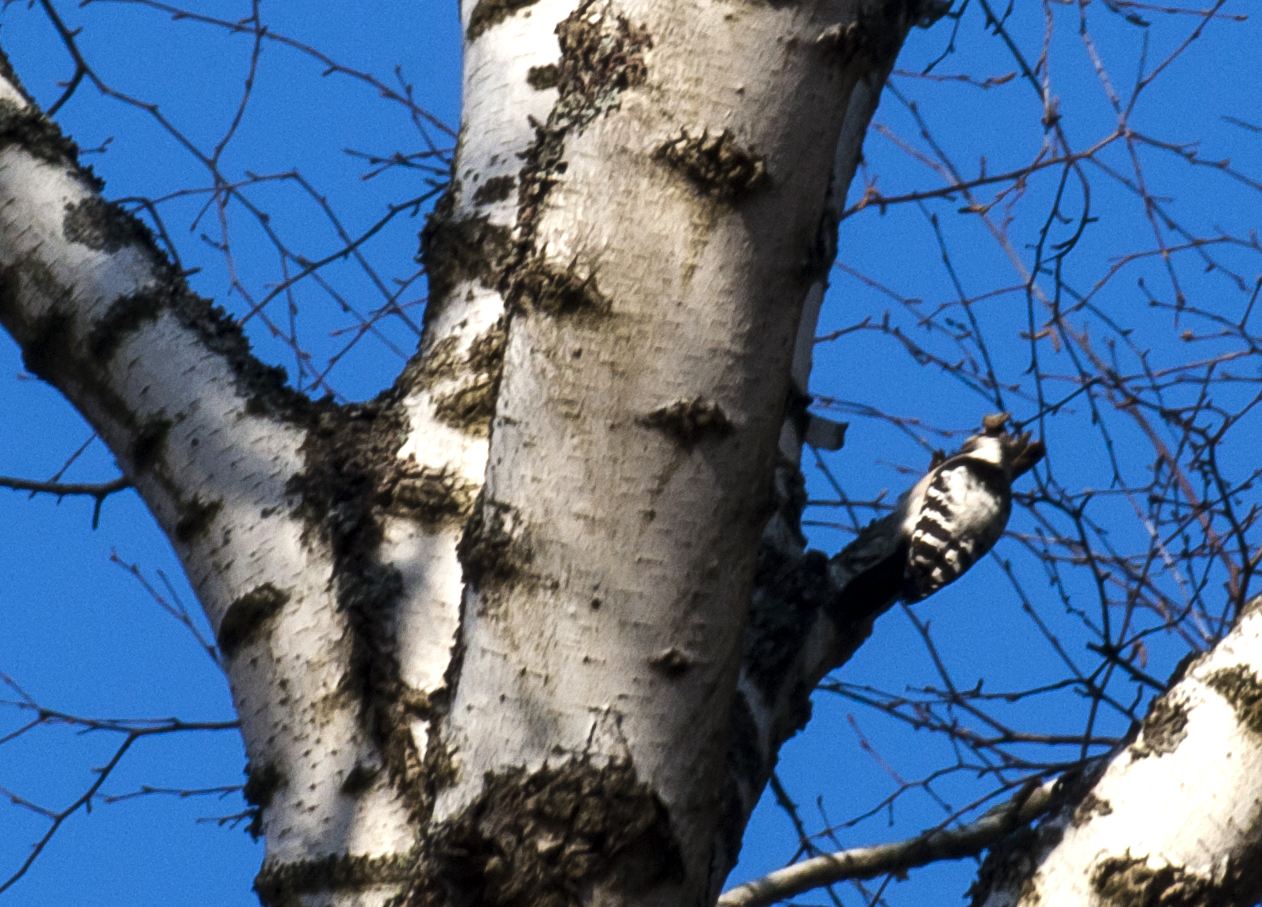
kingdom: Animalia
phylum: Chordata
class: Aves
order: Piciformes
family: Picidae
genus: Dryobates
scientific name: Dryobates minor
